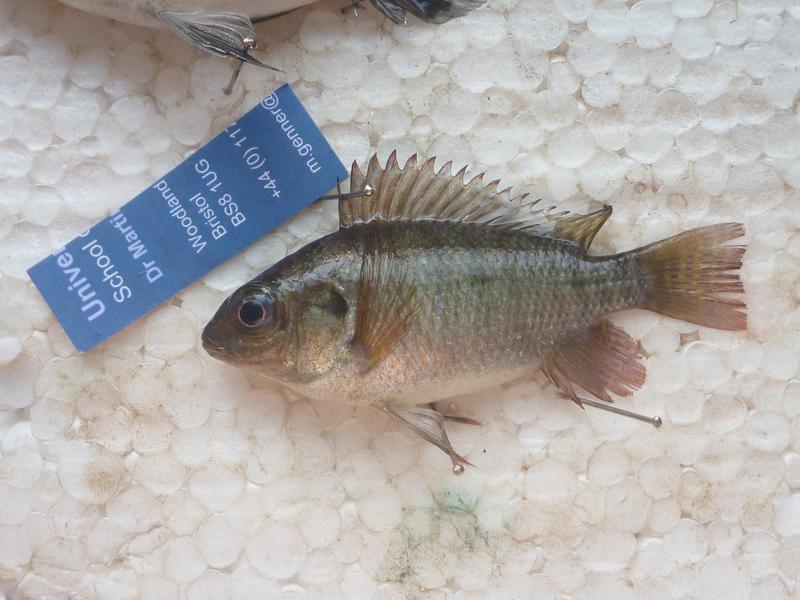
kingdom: Animalia
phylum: Chordata
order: Perciformes
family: Cichlidae
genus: Oreochromis
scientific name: Oreochromis upembae
